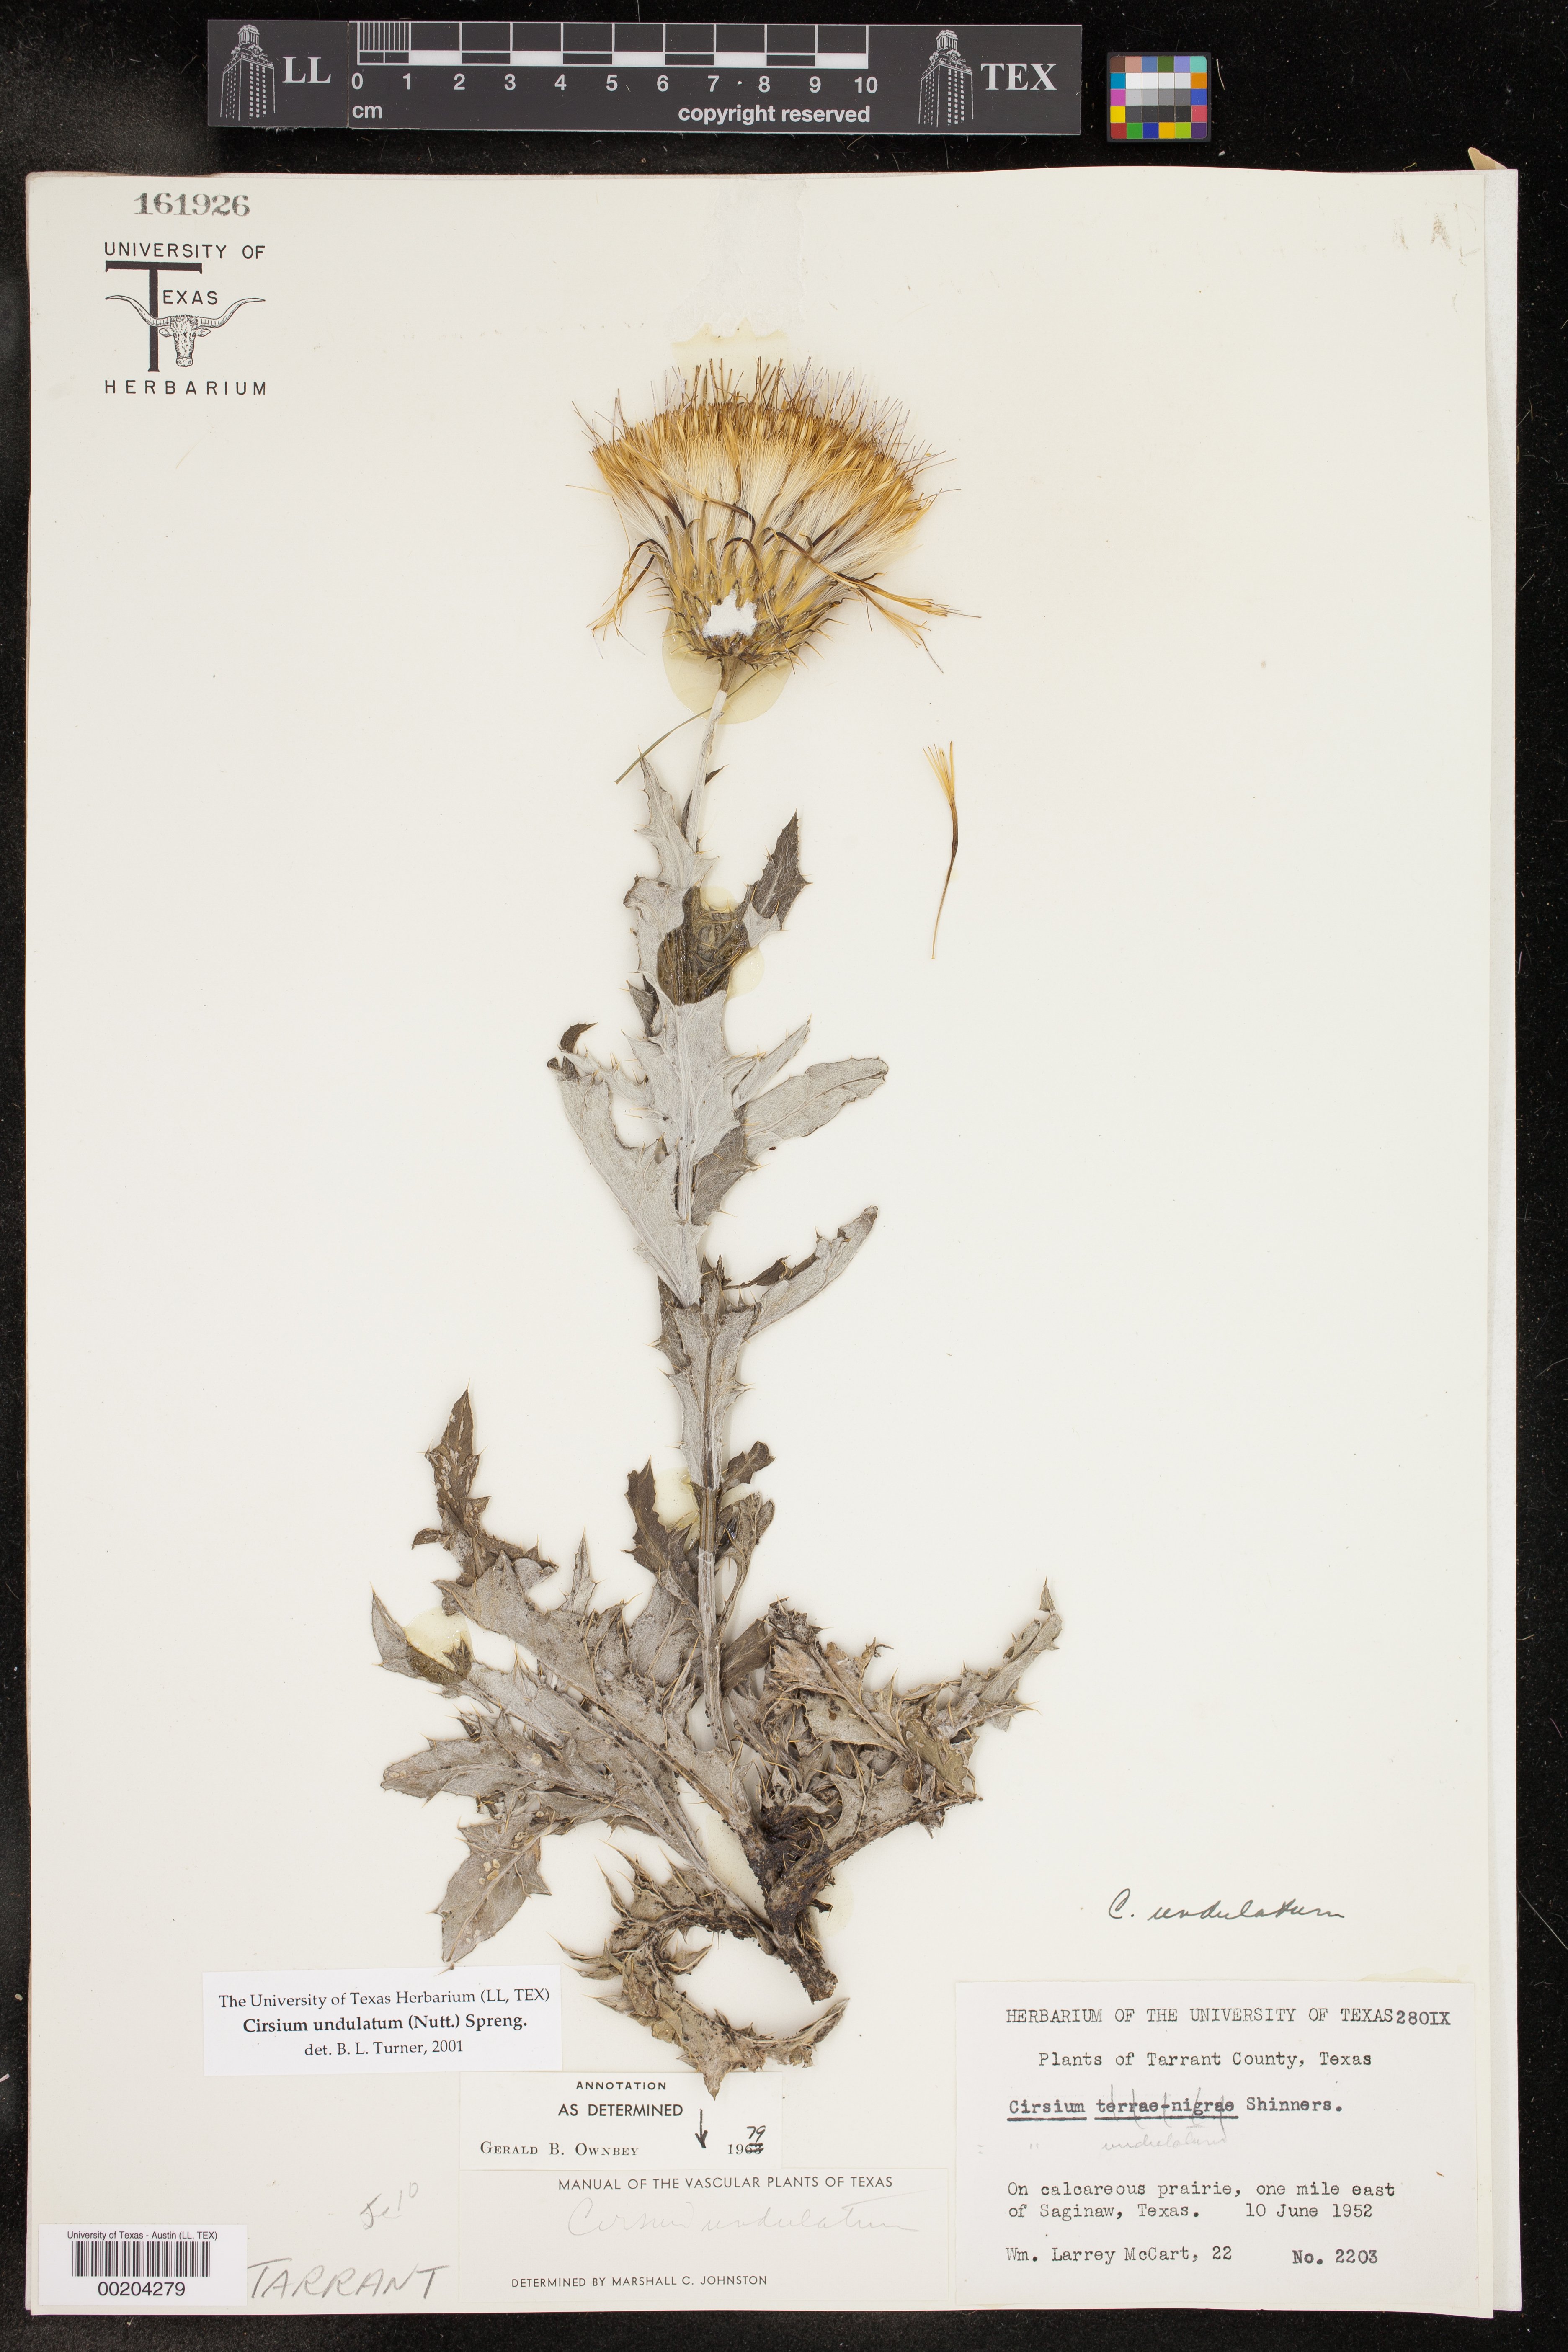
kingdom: Plantae
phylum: Tracheophyta
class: Magnoliopsida
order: Asterales
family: Asteraceae
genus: Cirsium
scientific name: Cirsium undulatum
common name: Pasture thistle
